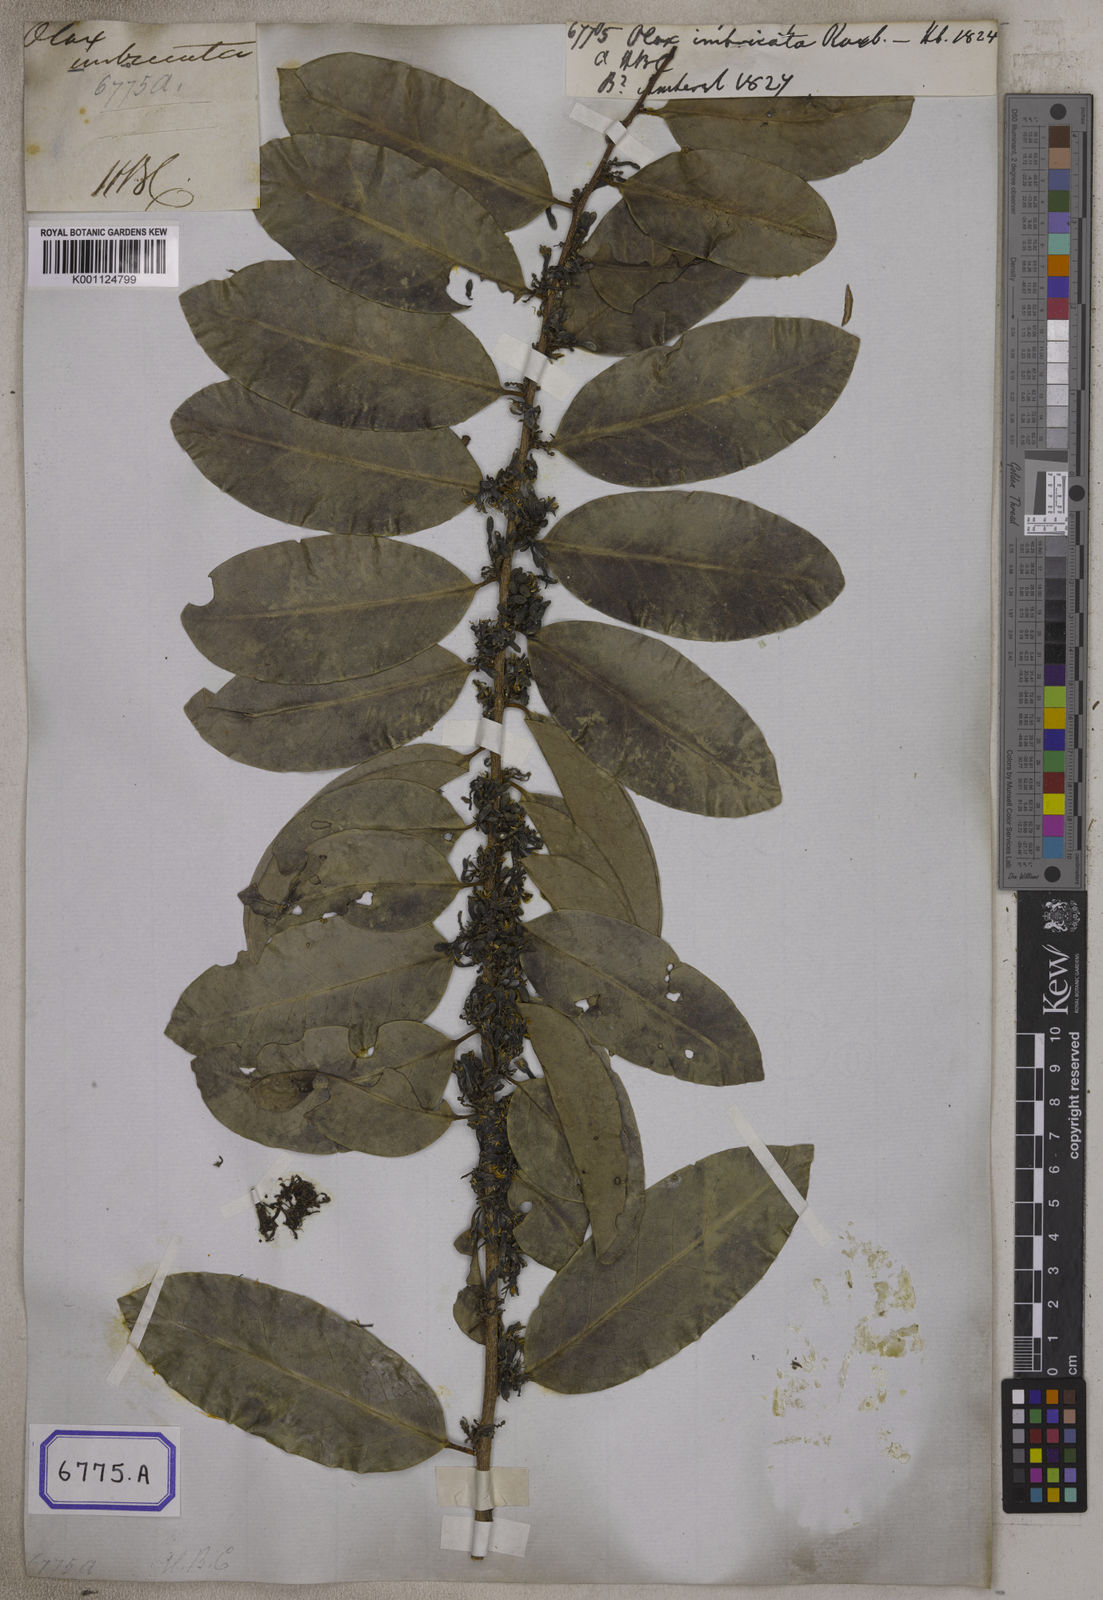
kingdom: Plantae
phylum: Tracheophyta
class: Magnoliopsida
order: Santalales
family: Olacaceae
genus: Olax
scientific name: Olax imbricata
